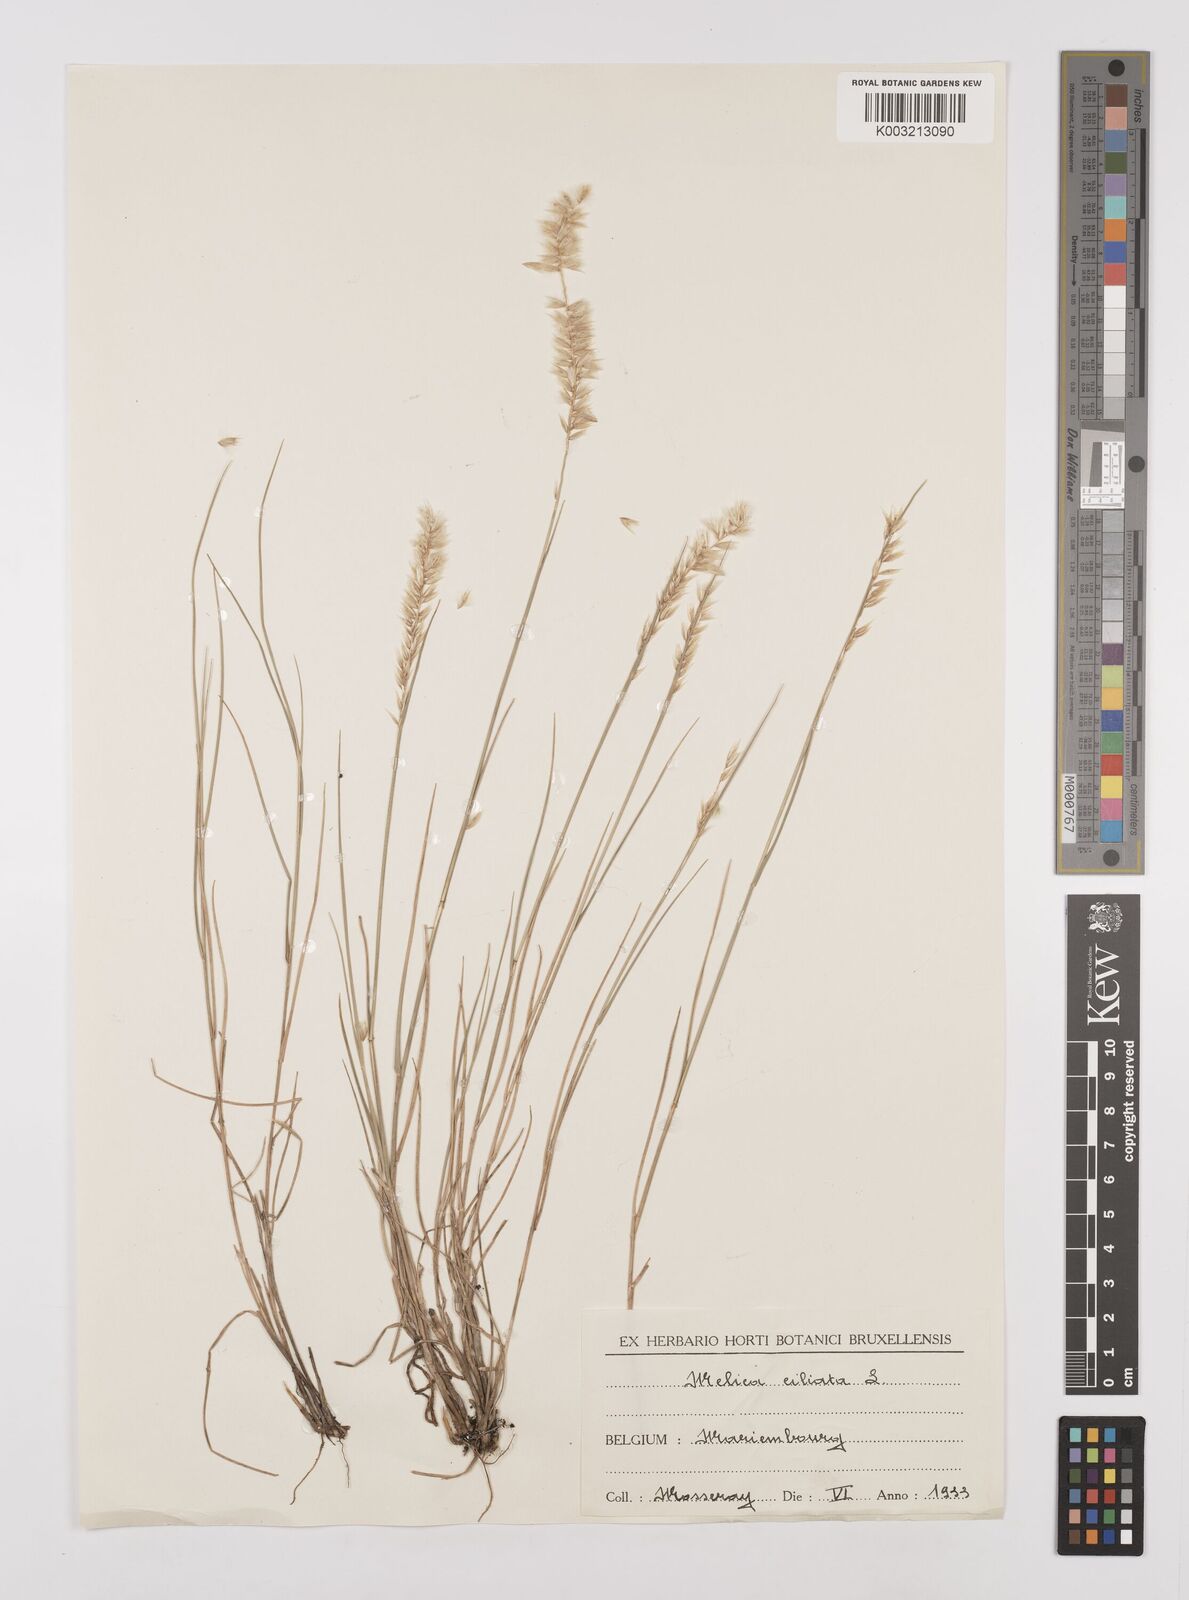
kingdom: Plantae
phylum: Tracheophyta
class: Liliopsida
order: Poales
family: Poaceae
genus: Melica
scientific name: Melica ciliata
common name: Hairy melicgrass
